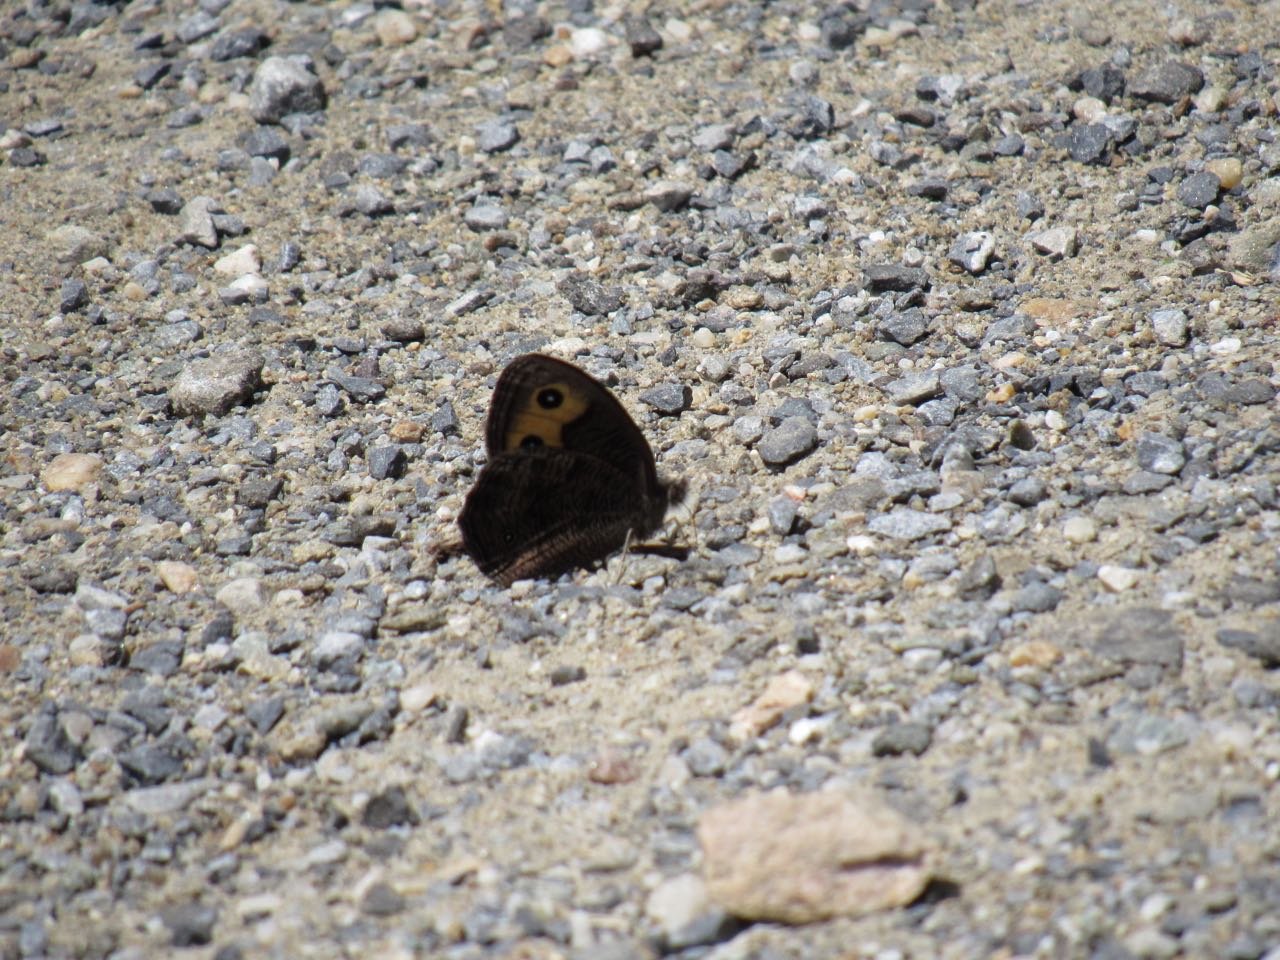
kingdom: Animalia
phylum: Arthropoda
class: Insecta
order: Lepidoptera
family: Nymphalidae
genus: Cercyonis
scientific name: Cercyonis pegala
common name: Common Wood-Nymph
